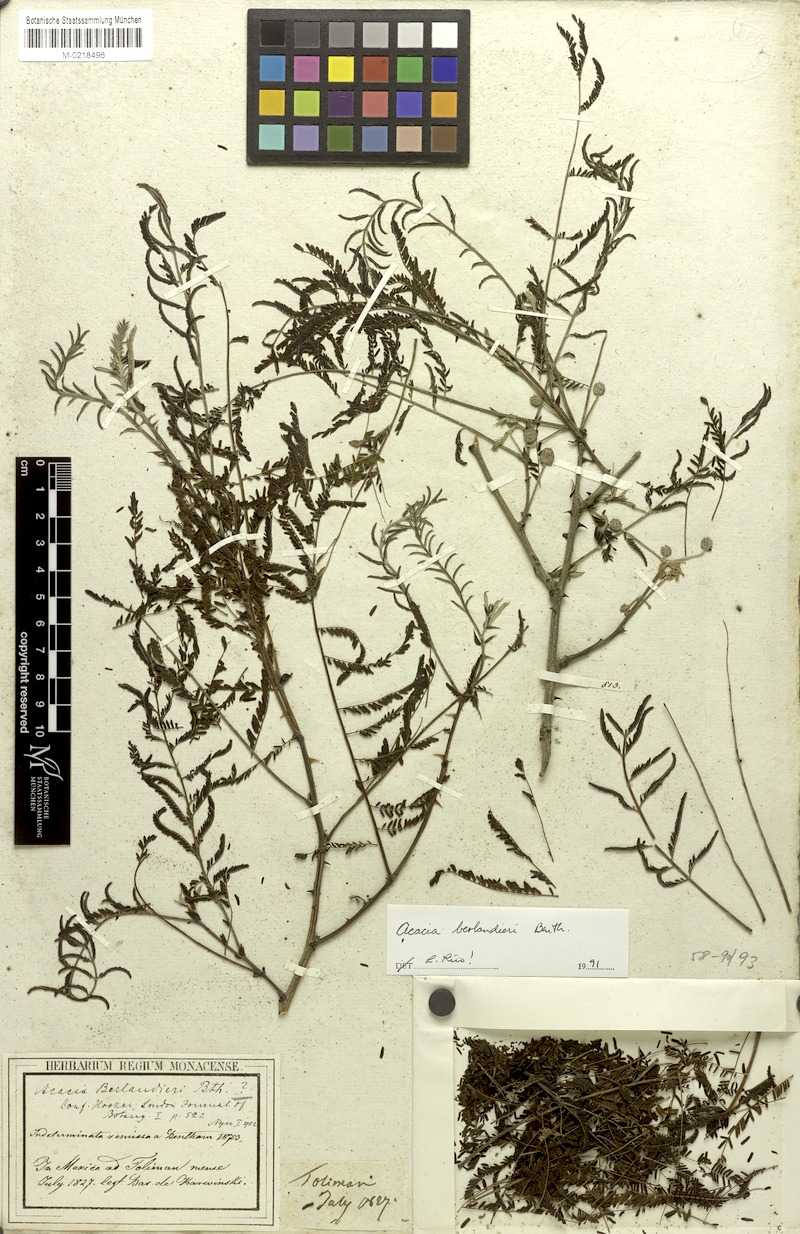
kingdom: Plantae
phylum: Tracheophyta
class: Magnoliopsida
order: Fabales
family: Fabaceae
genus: Senegalia
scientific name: Senegalia berlandieri
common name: Berlandier acacia
